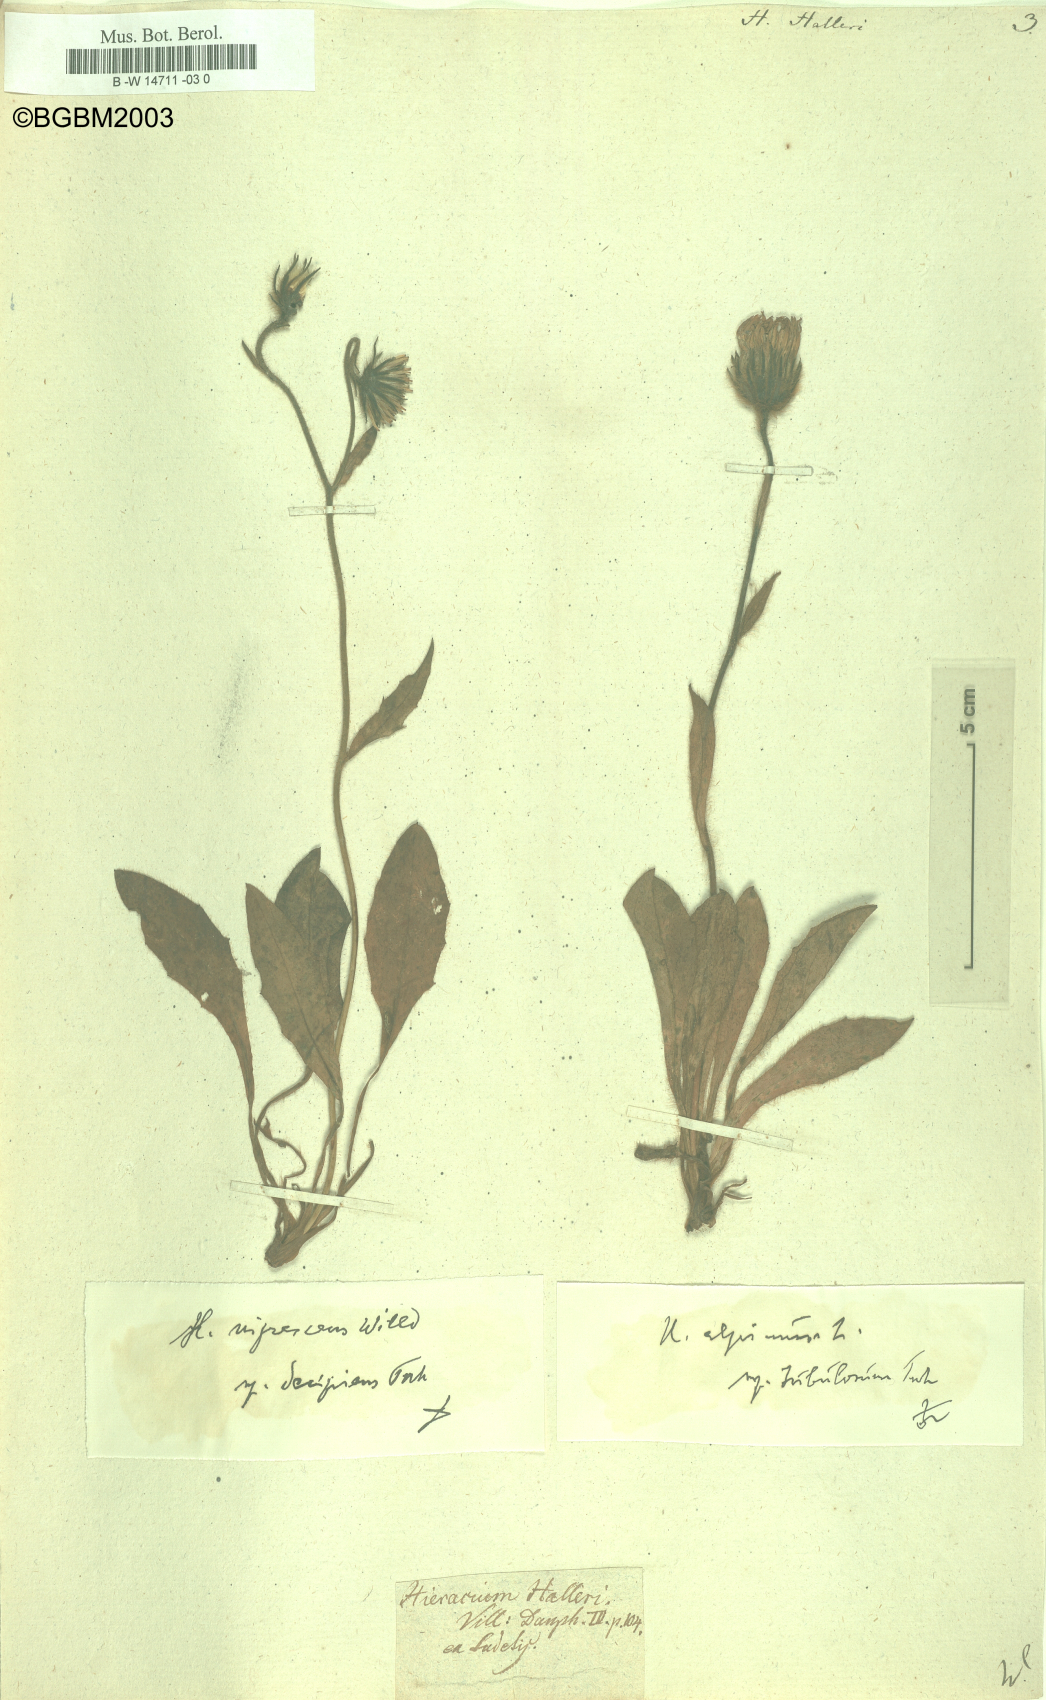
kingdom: Plantae
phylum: Tracheophyta
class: Magnoliopsida
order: Asterales
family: Asteraceae
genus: Hieracium
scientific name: Hieracium halleri
